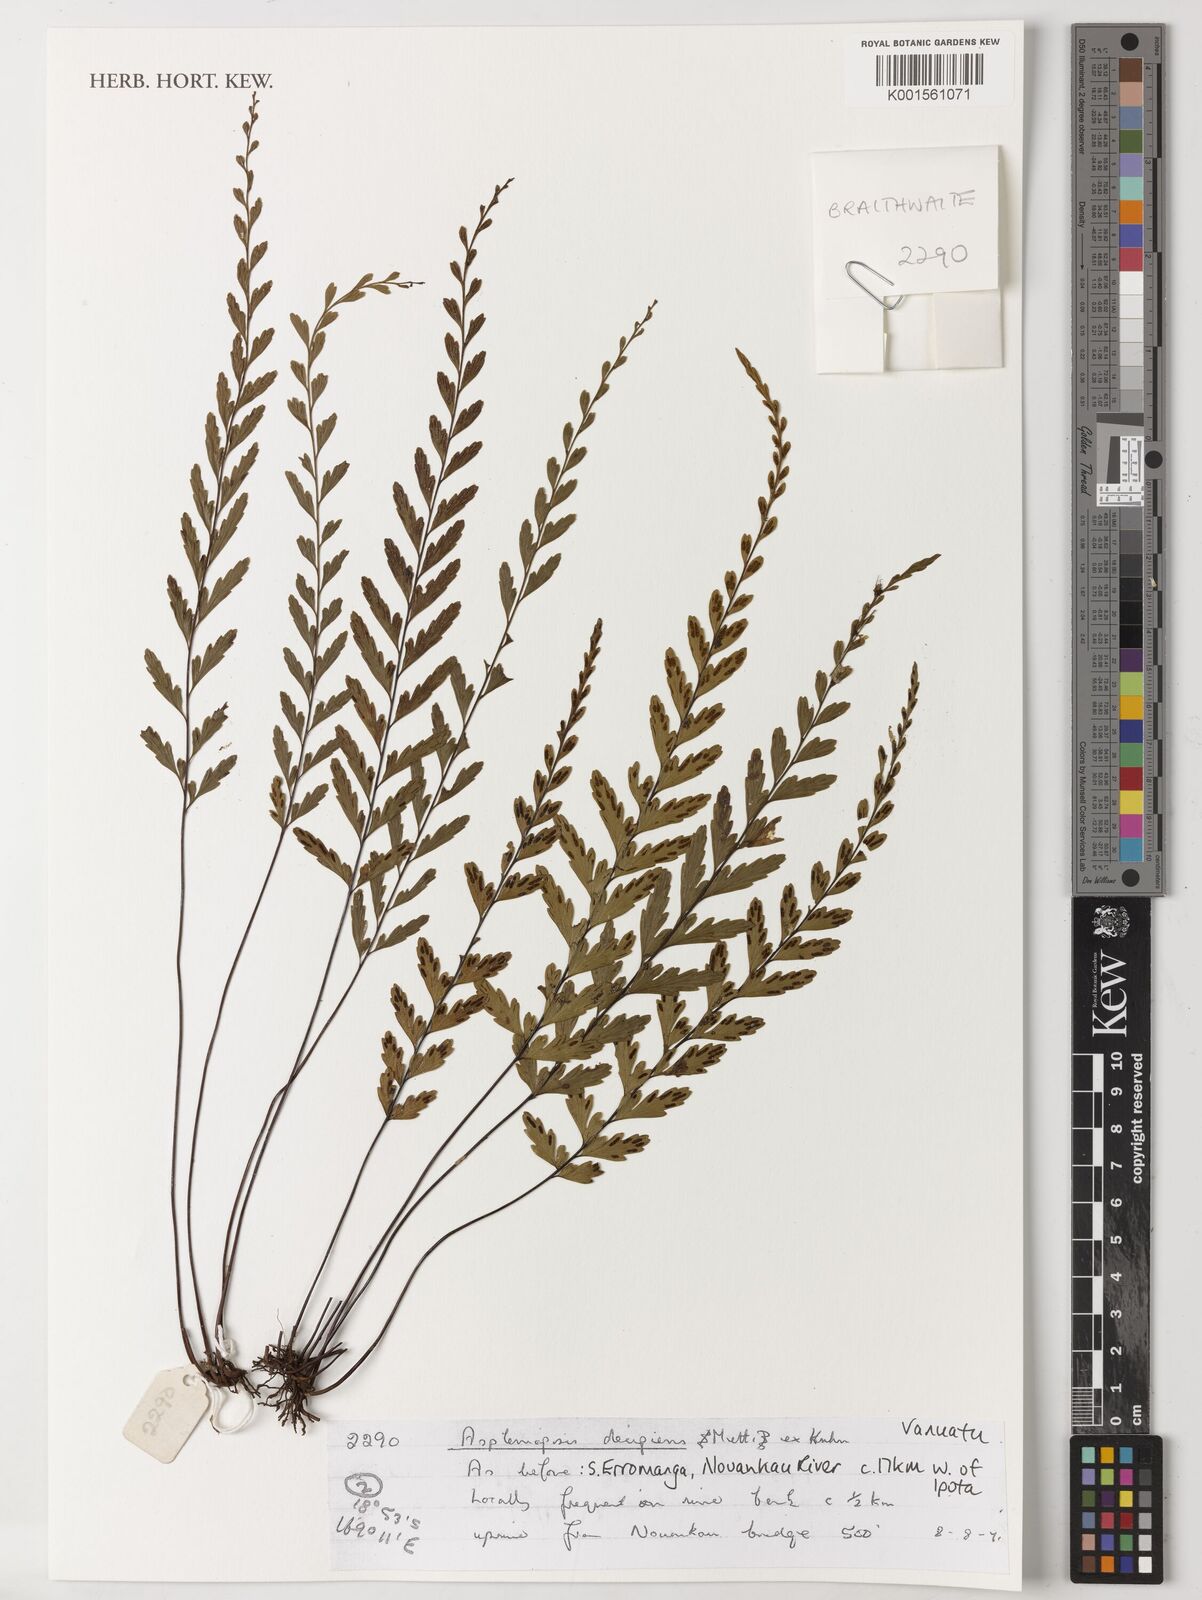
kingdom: Plantae
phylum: Tracheophyta
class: Polypodiopsida
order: Polypodiales
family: Pteridaceae
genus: Austrogramme
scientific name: Austrogramme decipiens
